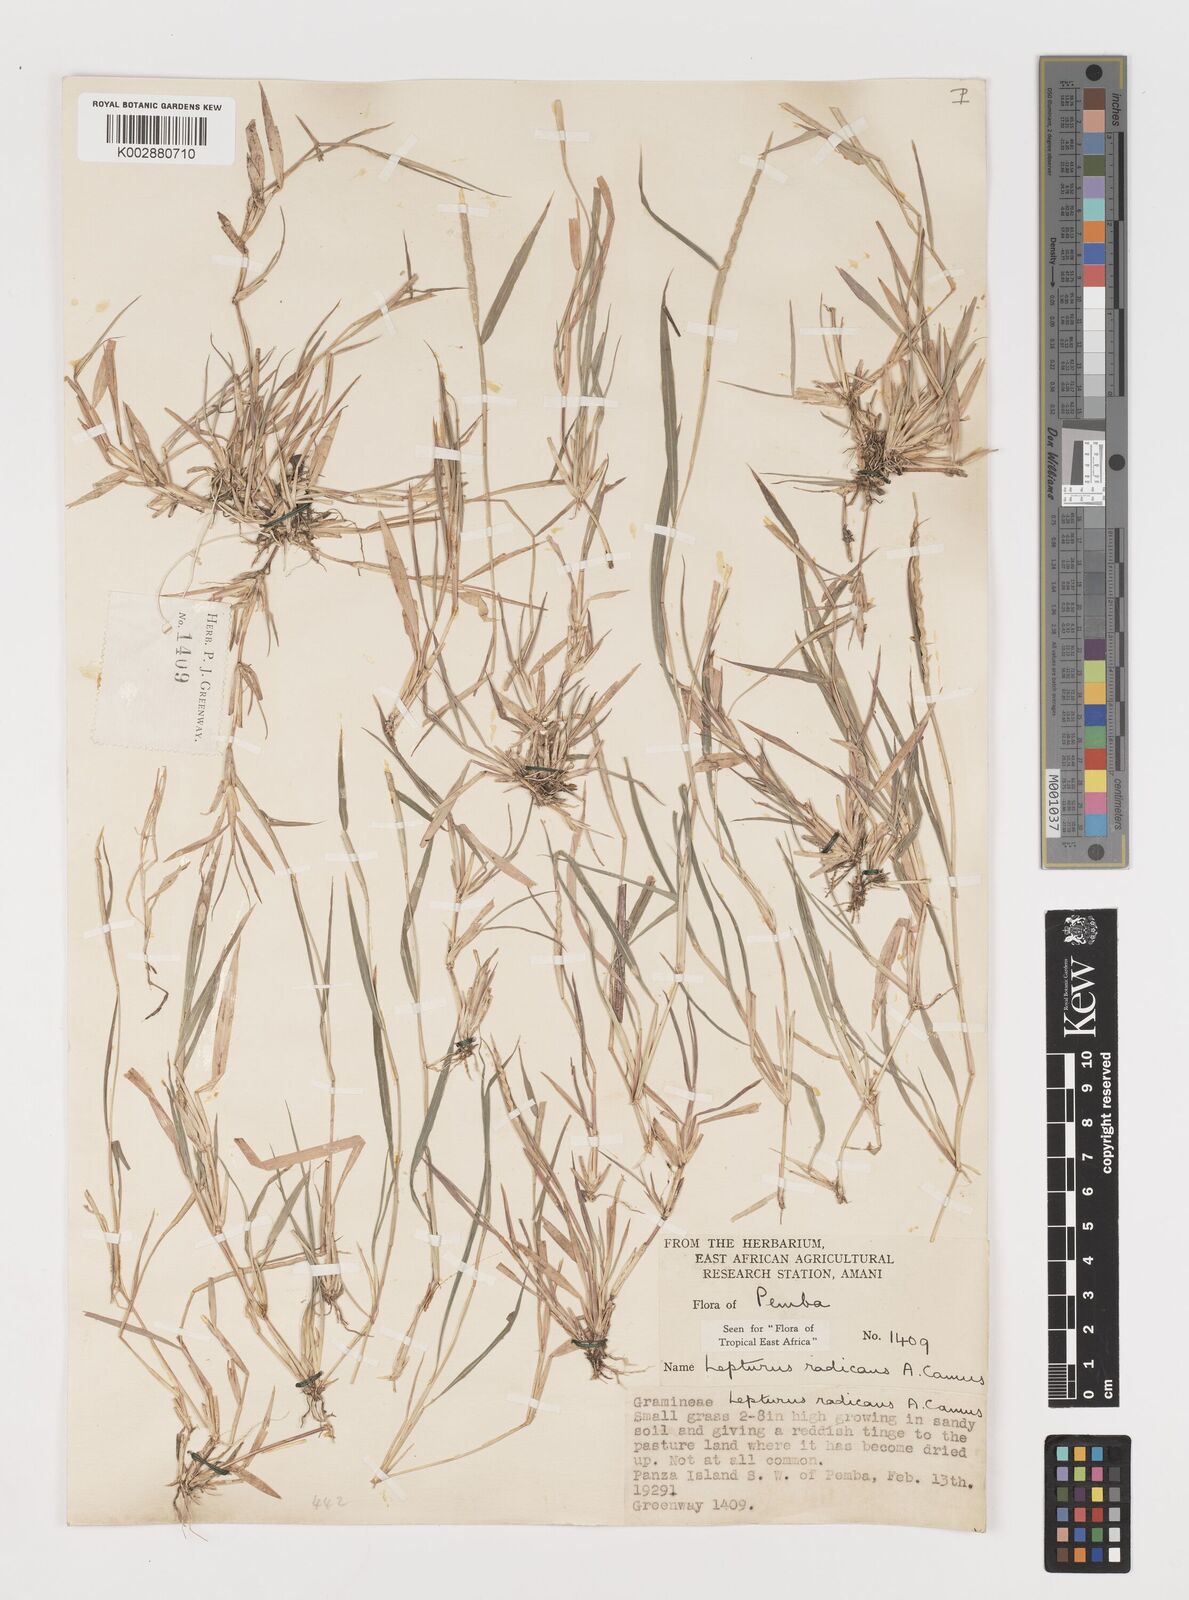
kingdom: Plantae
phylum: Tracheophyta
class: Liliopsida
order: Poales
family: Poaceae
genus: Lepturus
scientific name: Lepturus radicans
